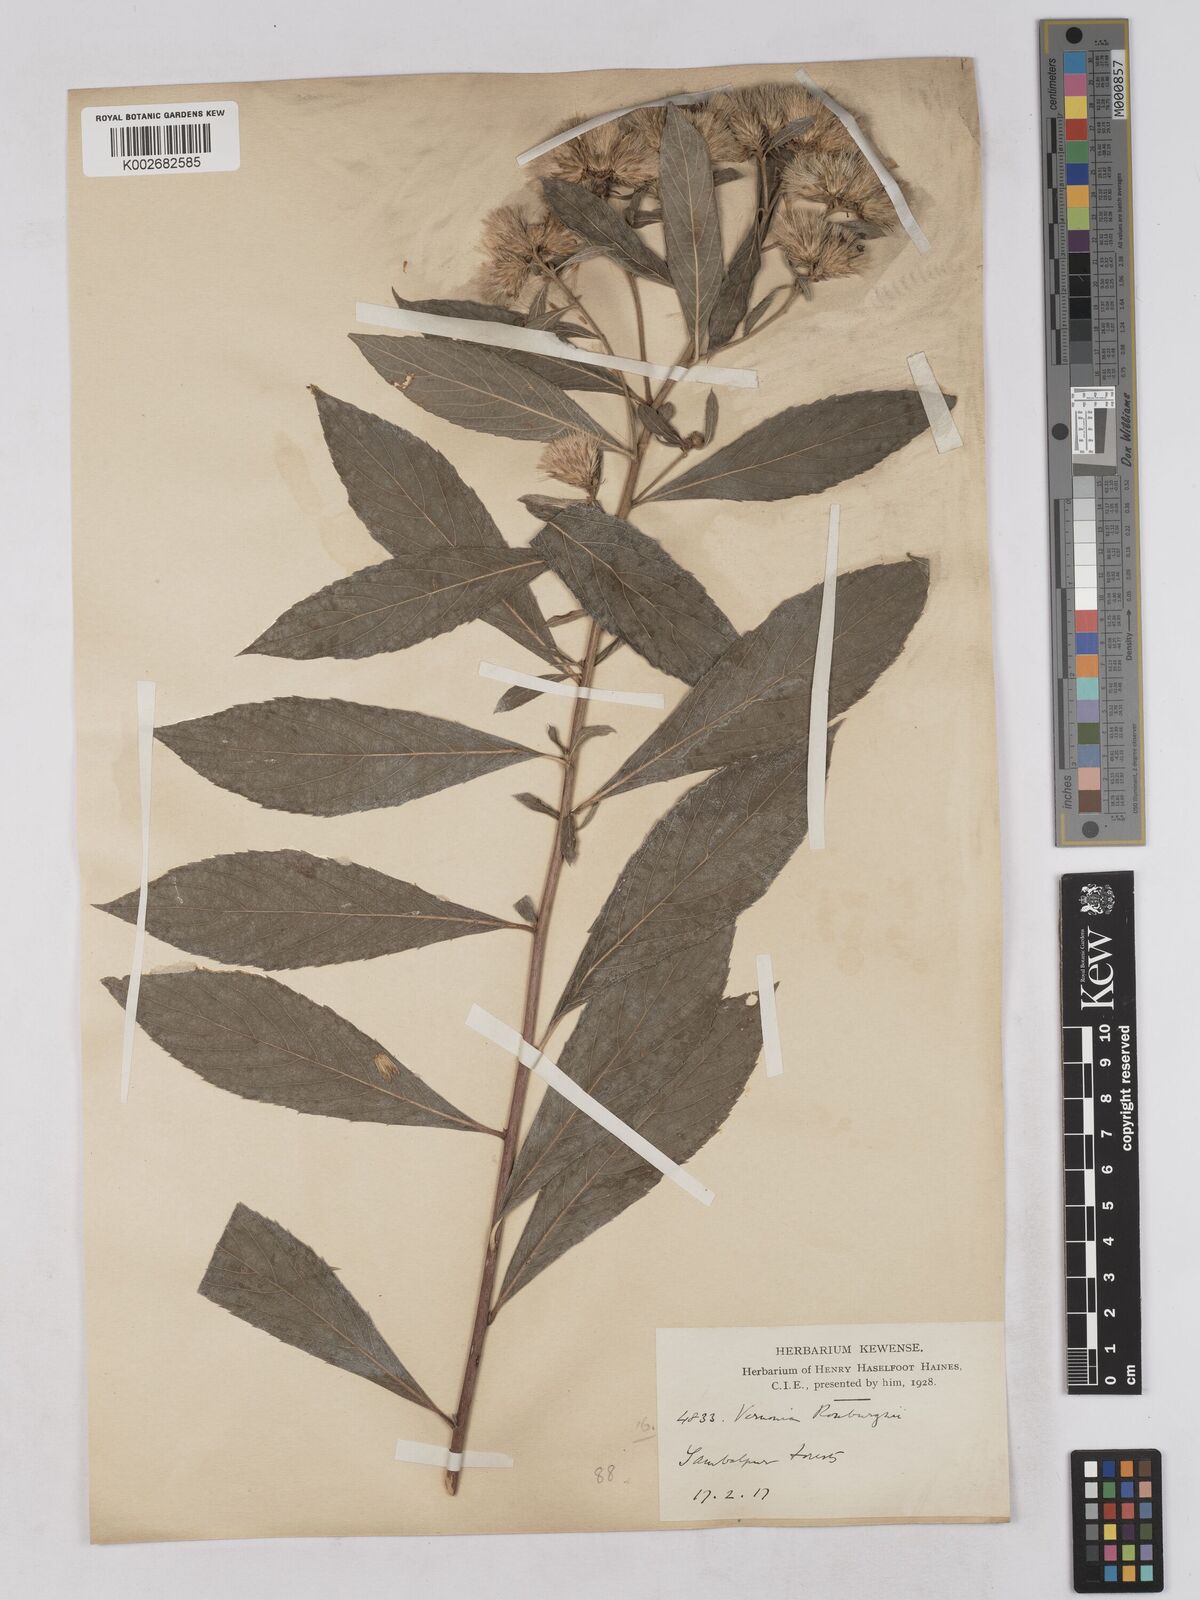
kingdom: Plantae
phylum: Tracheophyta
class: Magnoliopsida
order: Asterales
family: Asteraceae
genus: Acilepis
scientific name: Acilepis aspera
